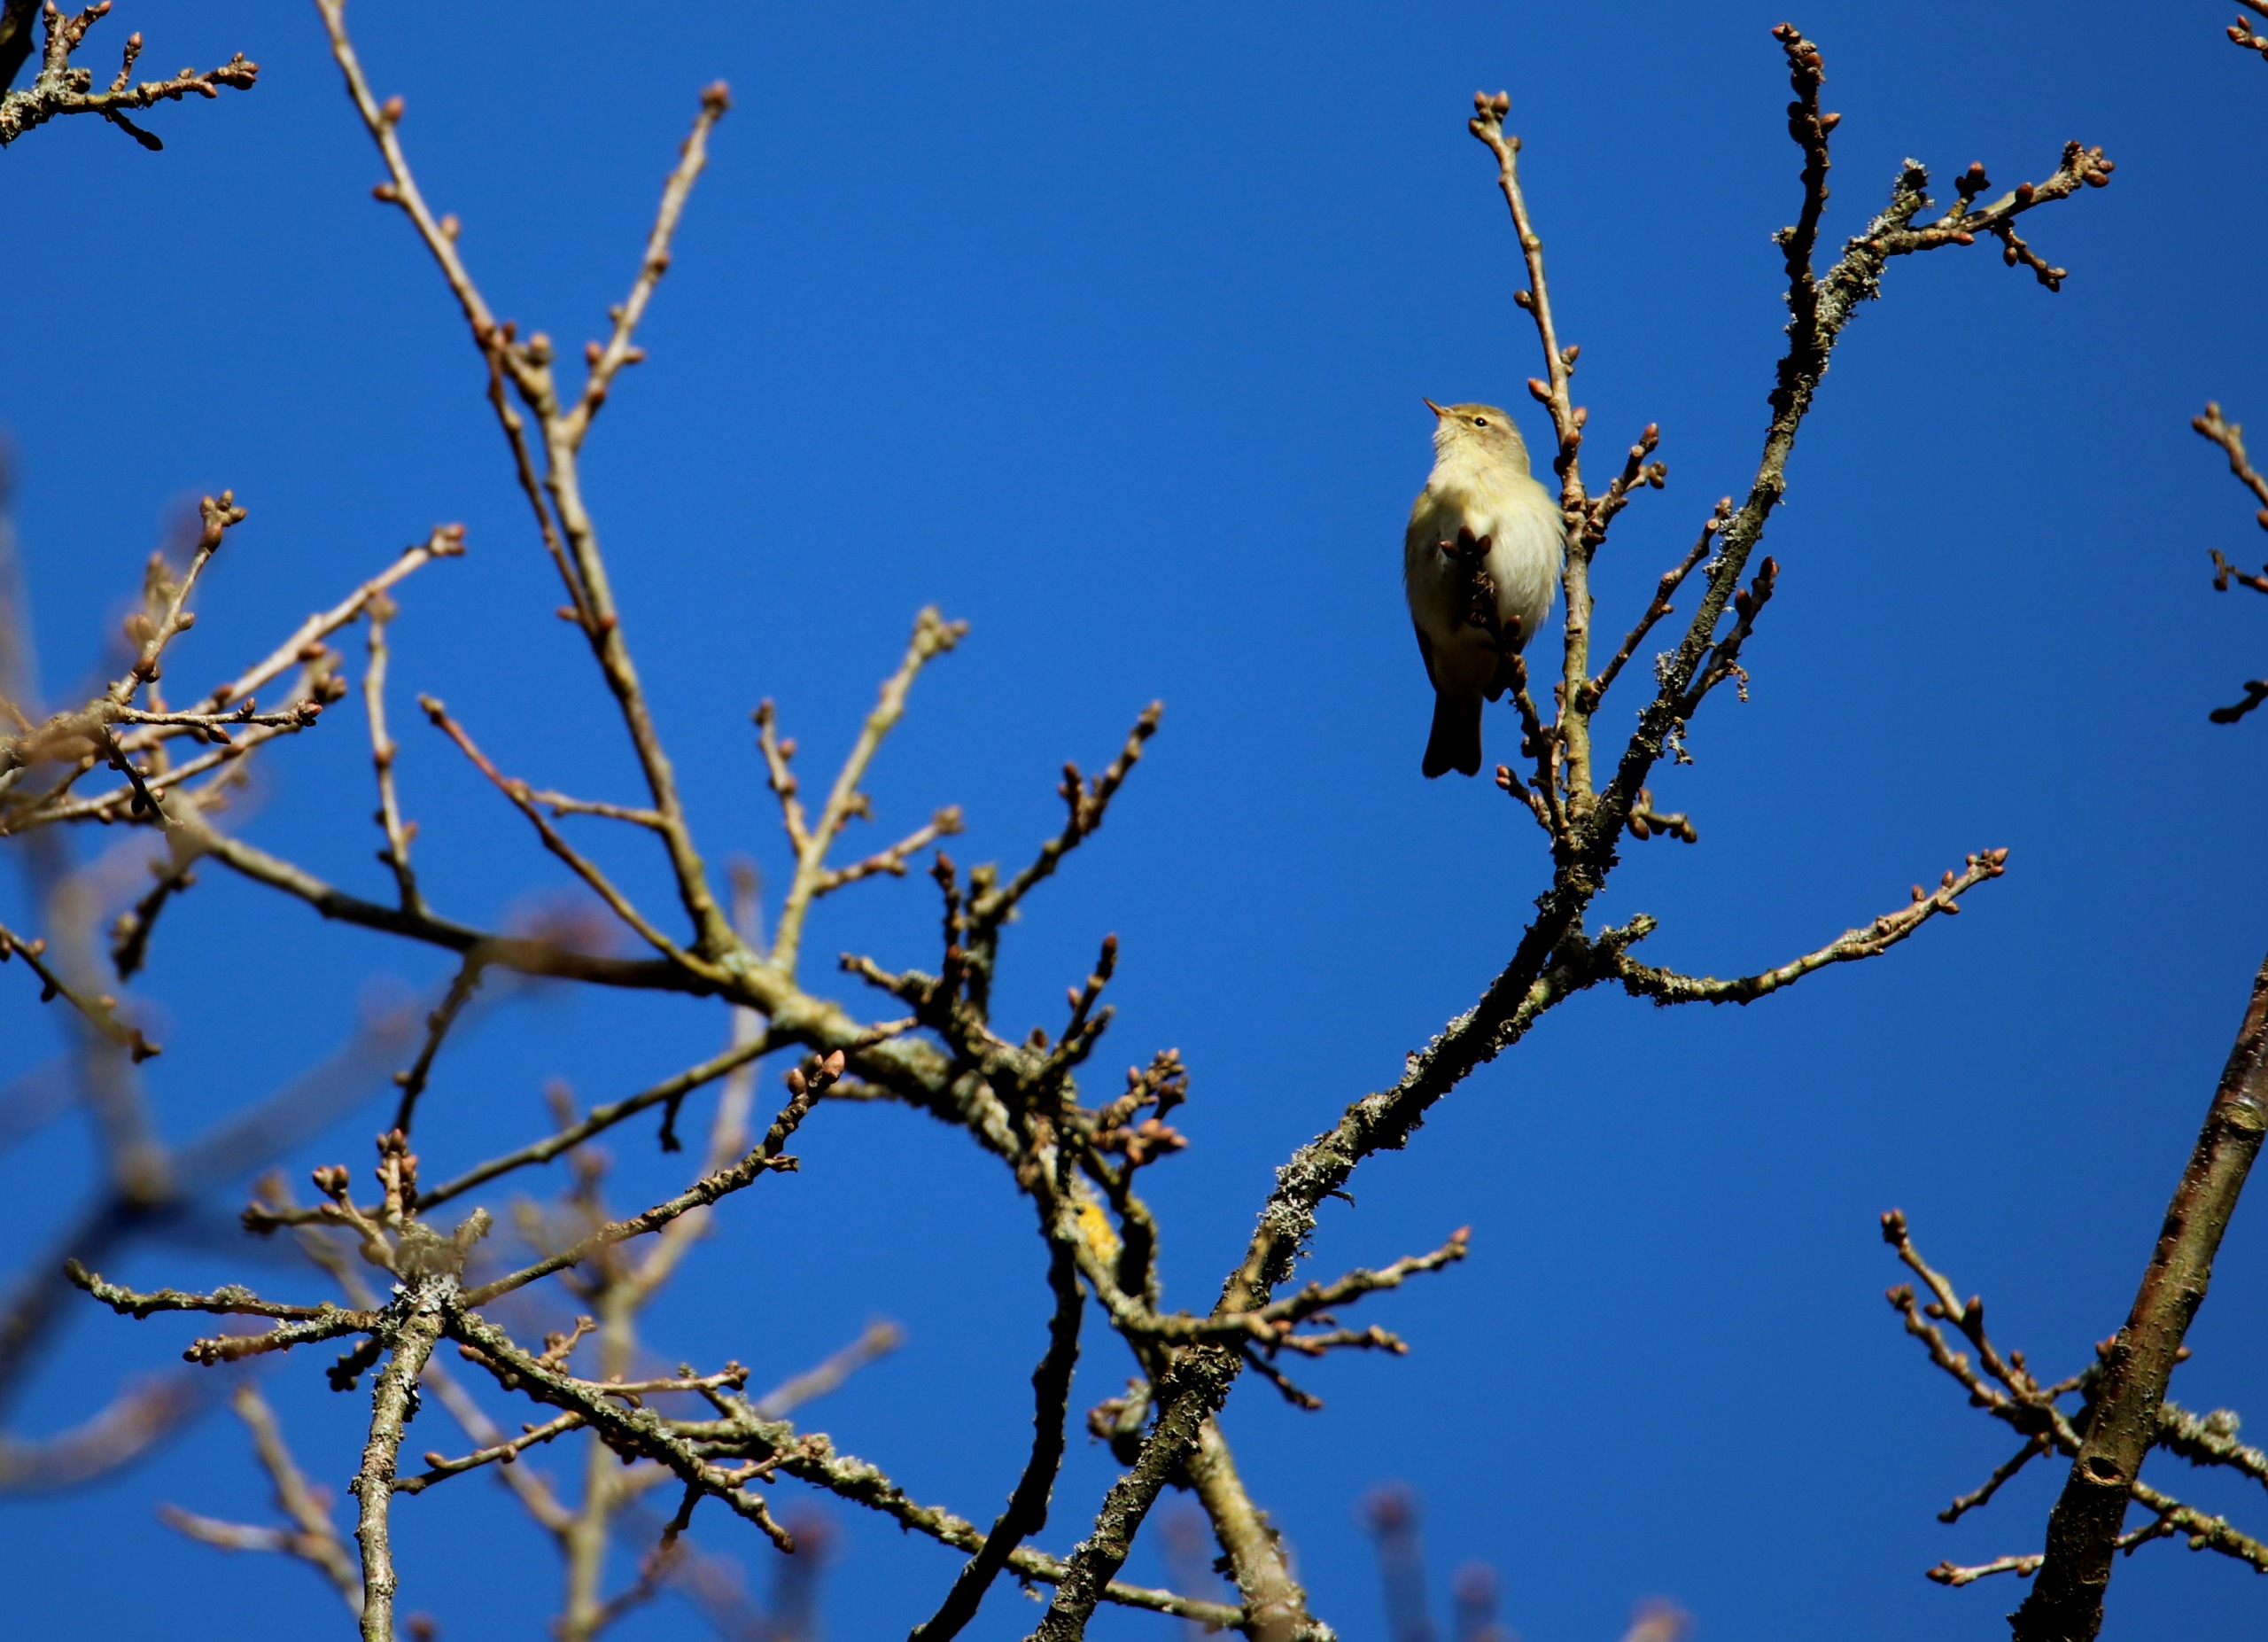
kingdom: Animalia
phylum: Chordata
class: Aves
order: Passeriformes
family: Phylloscopidae
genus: Phylloscopus
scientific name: Phylloscopus collybita
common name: Gransanger
